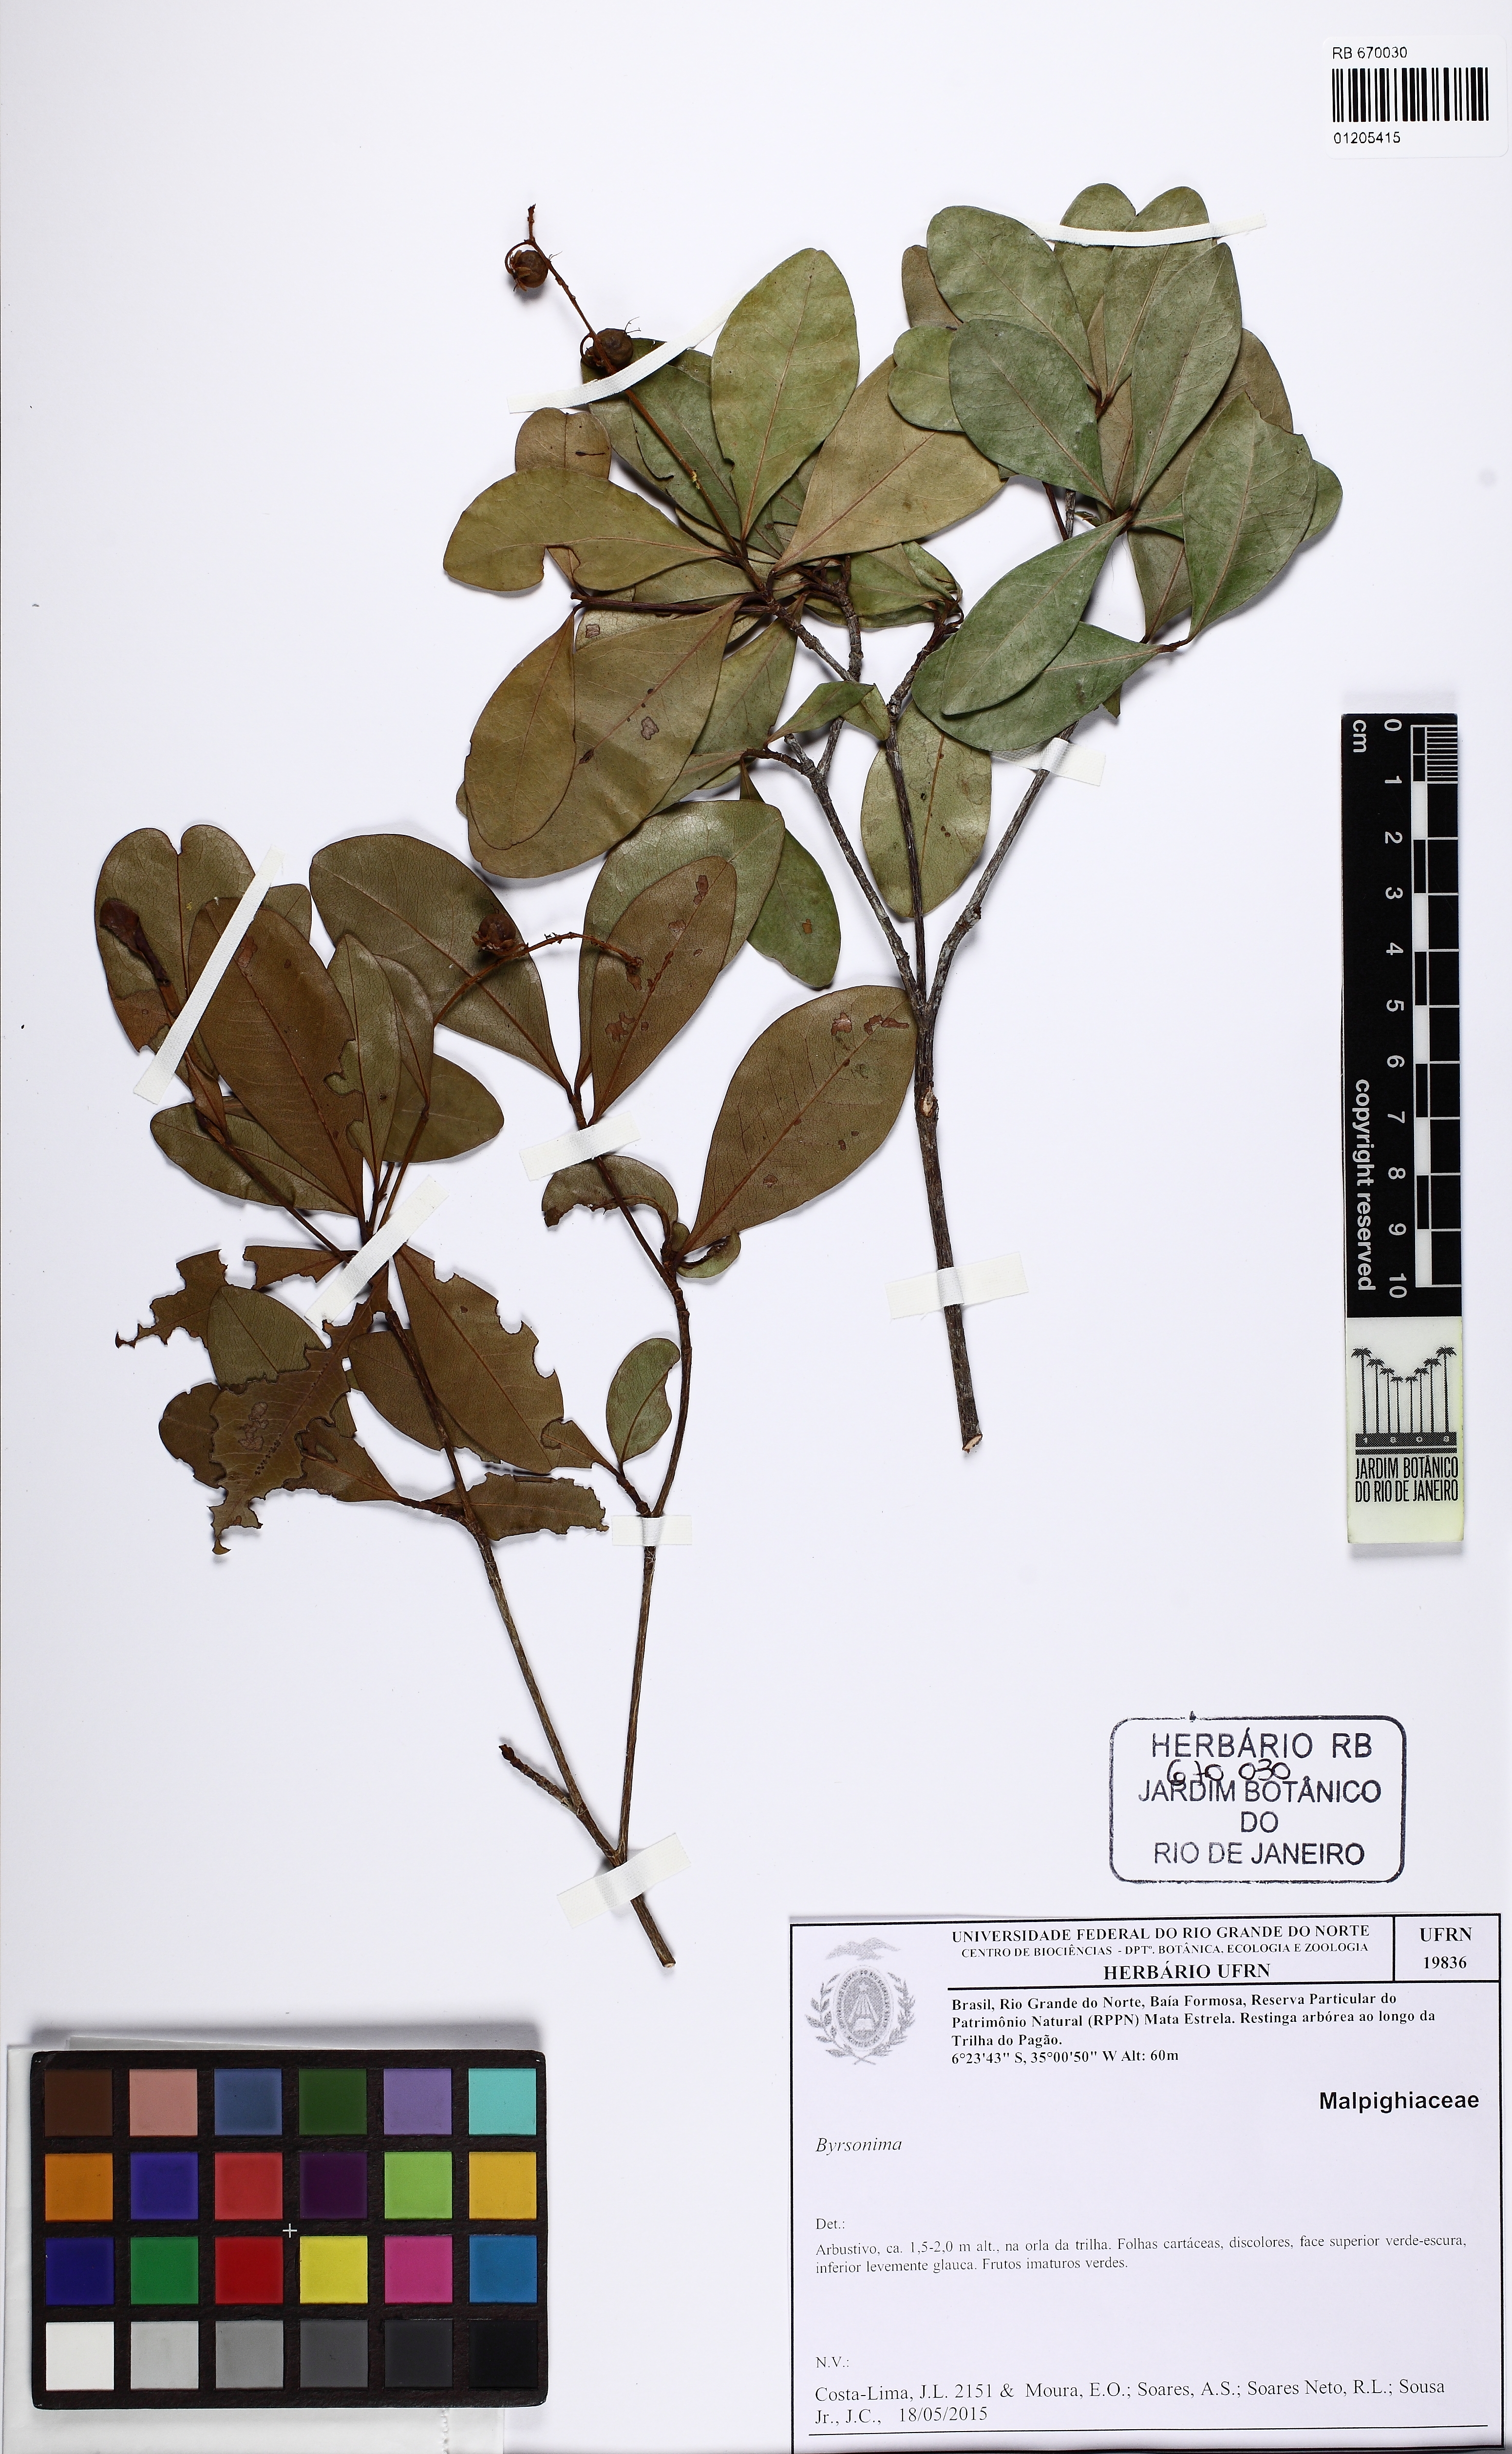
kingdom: Plantae
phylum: Tracheophyta
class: Magnoliopsida
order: Malpighiales
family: Malpighiaceae
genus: Byrsonima
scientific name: Byrsonima
